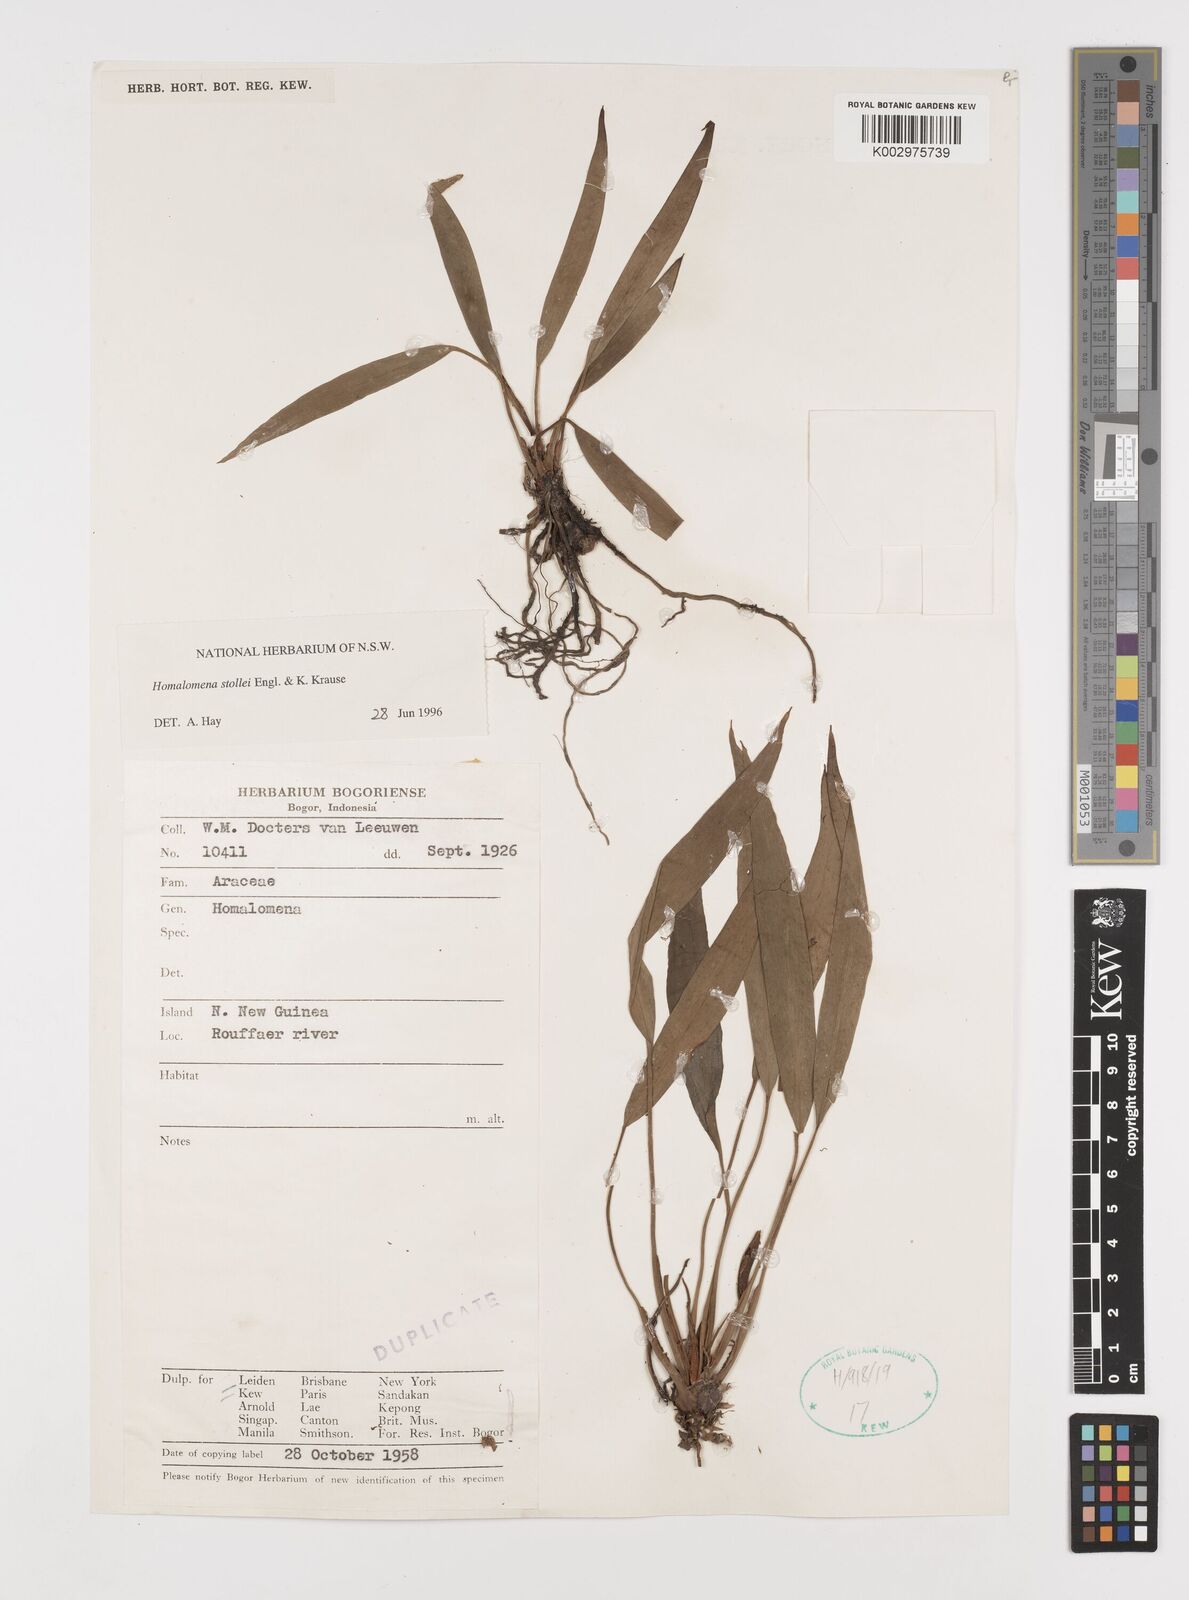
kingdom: Plantae
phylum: Tracheophyta
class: Liliopsida
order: Alismatales
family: Araceae
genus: Homalomena
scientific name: Homalomena stollei
